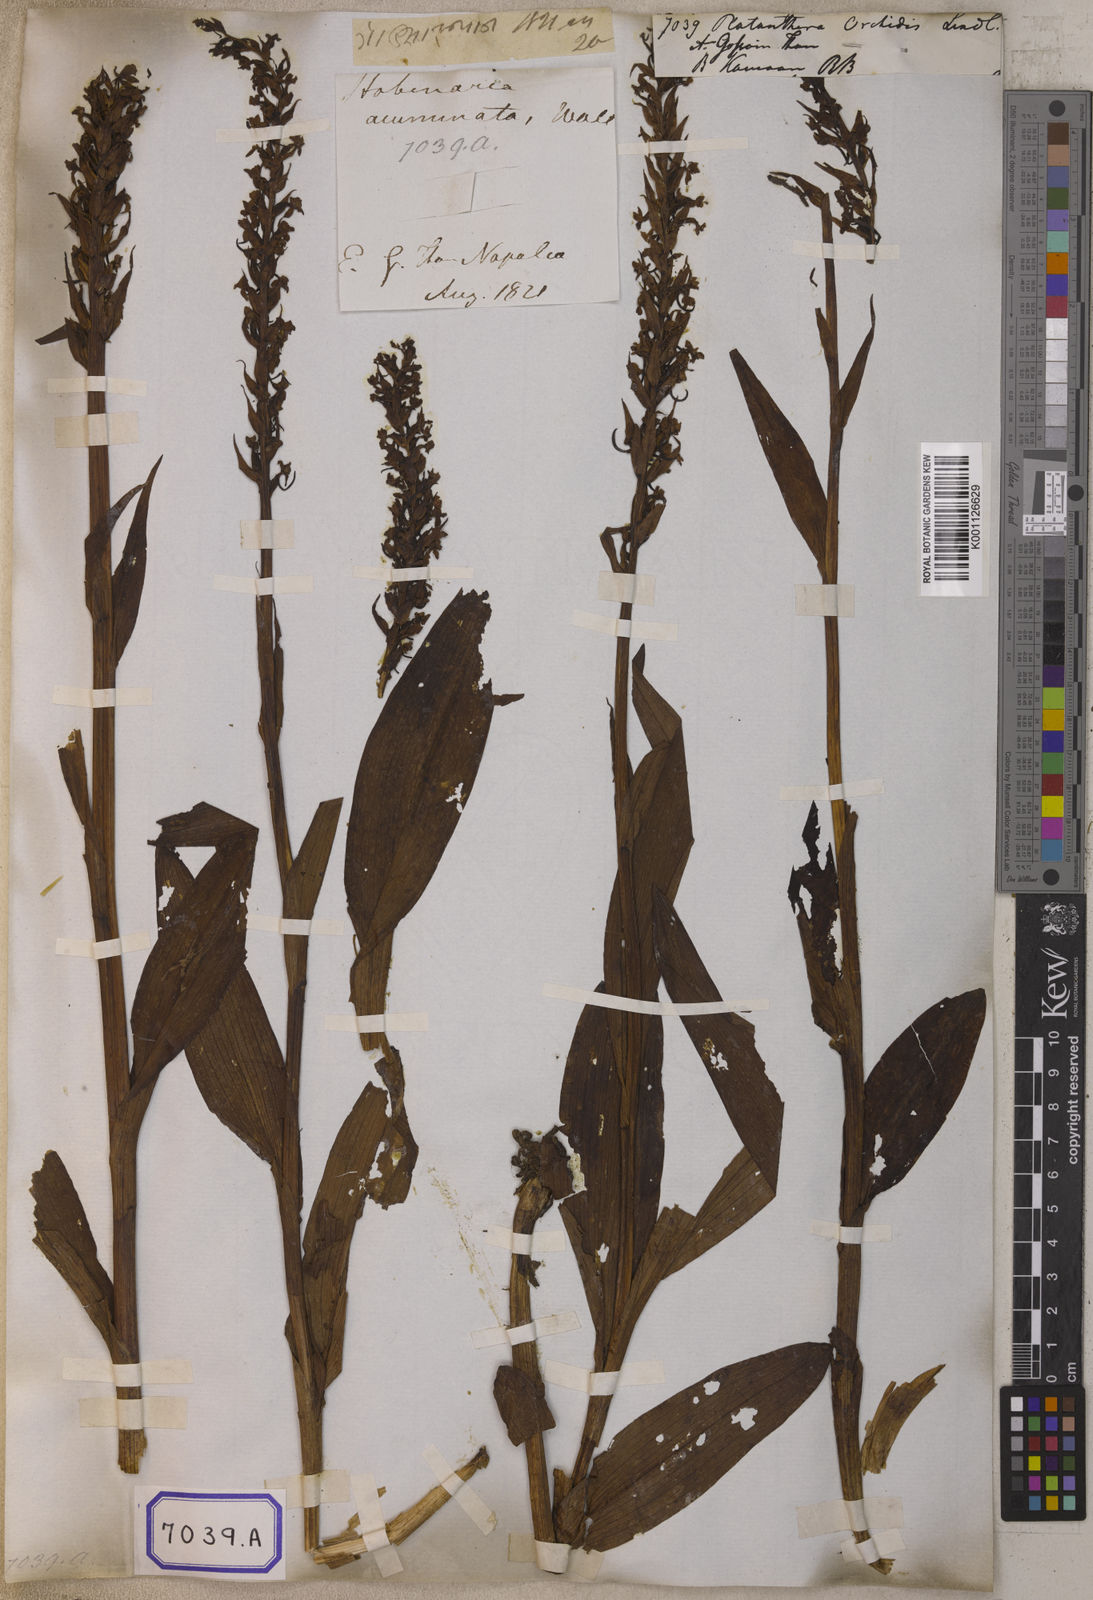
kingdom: Plantae
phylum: Tracheophyta
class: Liliopsida
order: Asparagales
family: Orchidaceae
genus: Platanthera
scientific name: Platanthera
